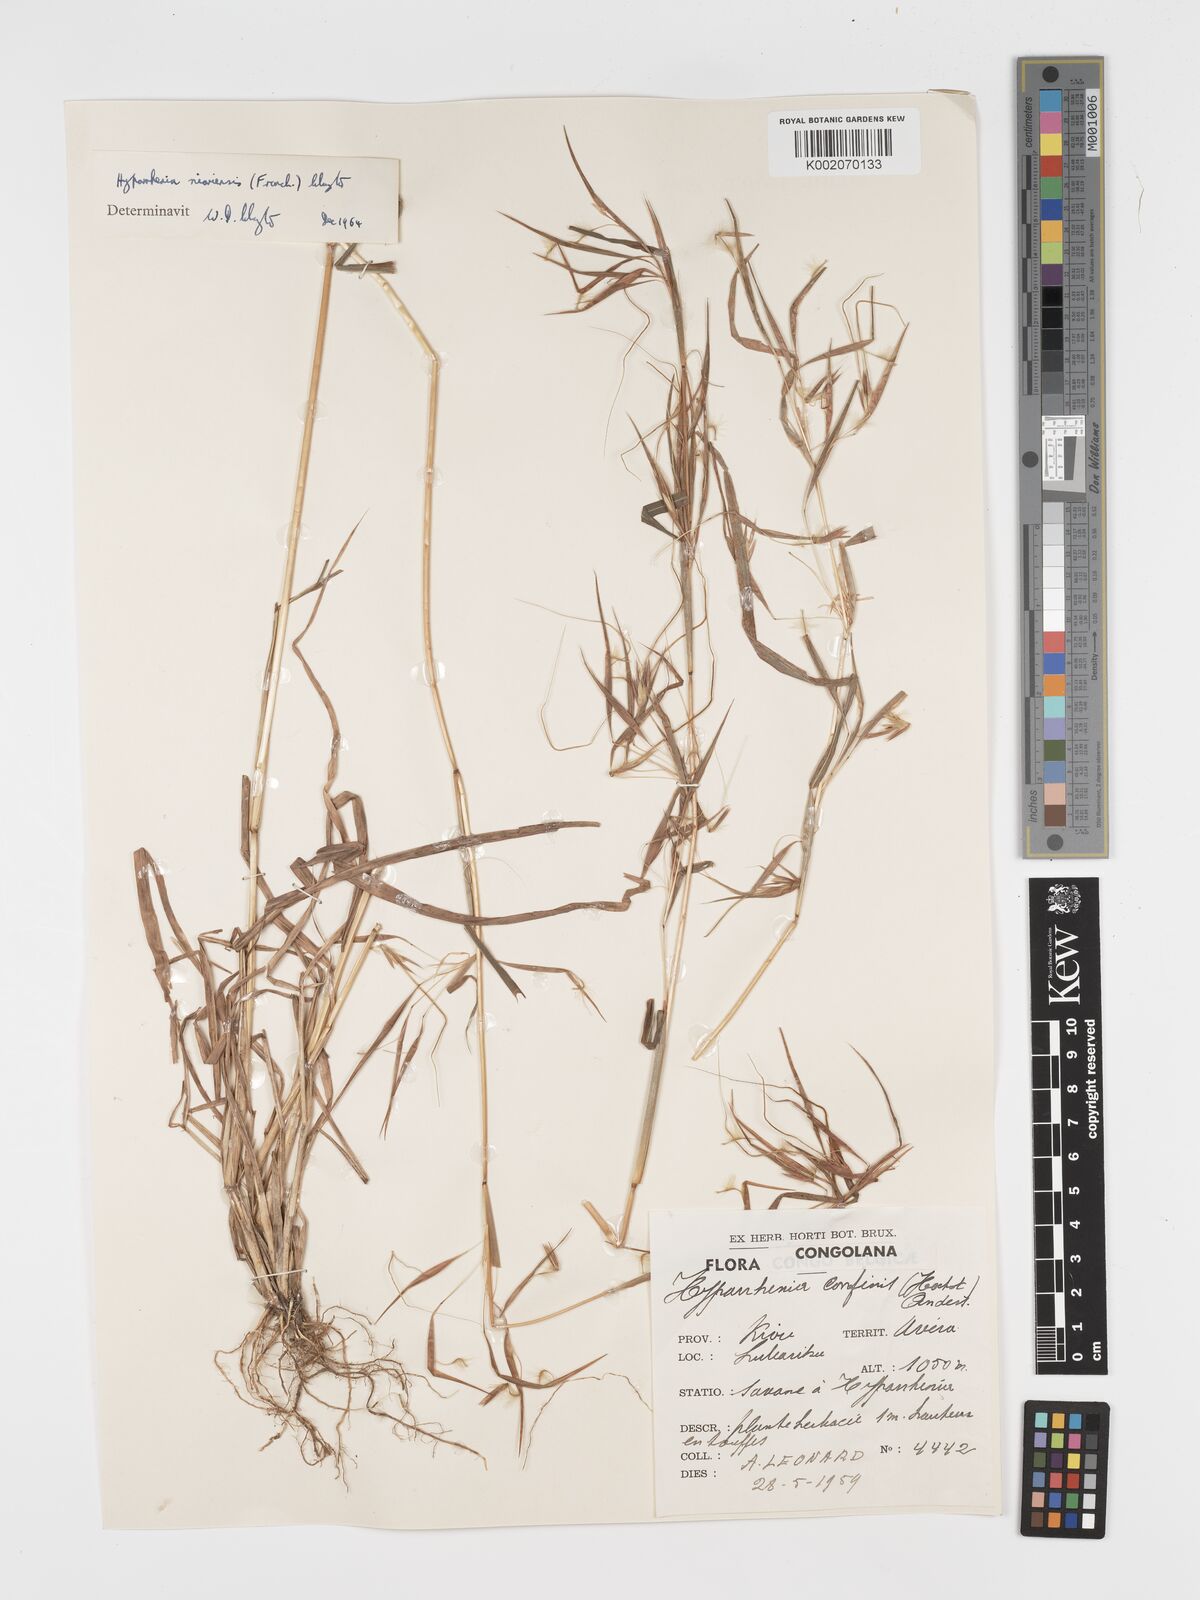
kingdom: Plantae
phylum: Tracheophyta
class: Liliopsida
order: Poales
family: Poaceae
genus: Hyparrhenia
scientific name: Hyparrhenia niariensis
